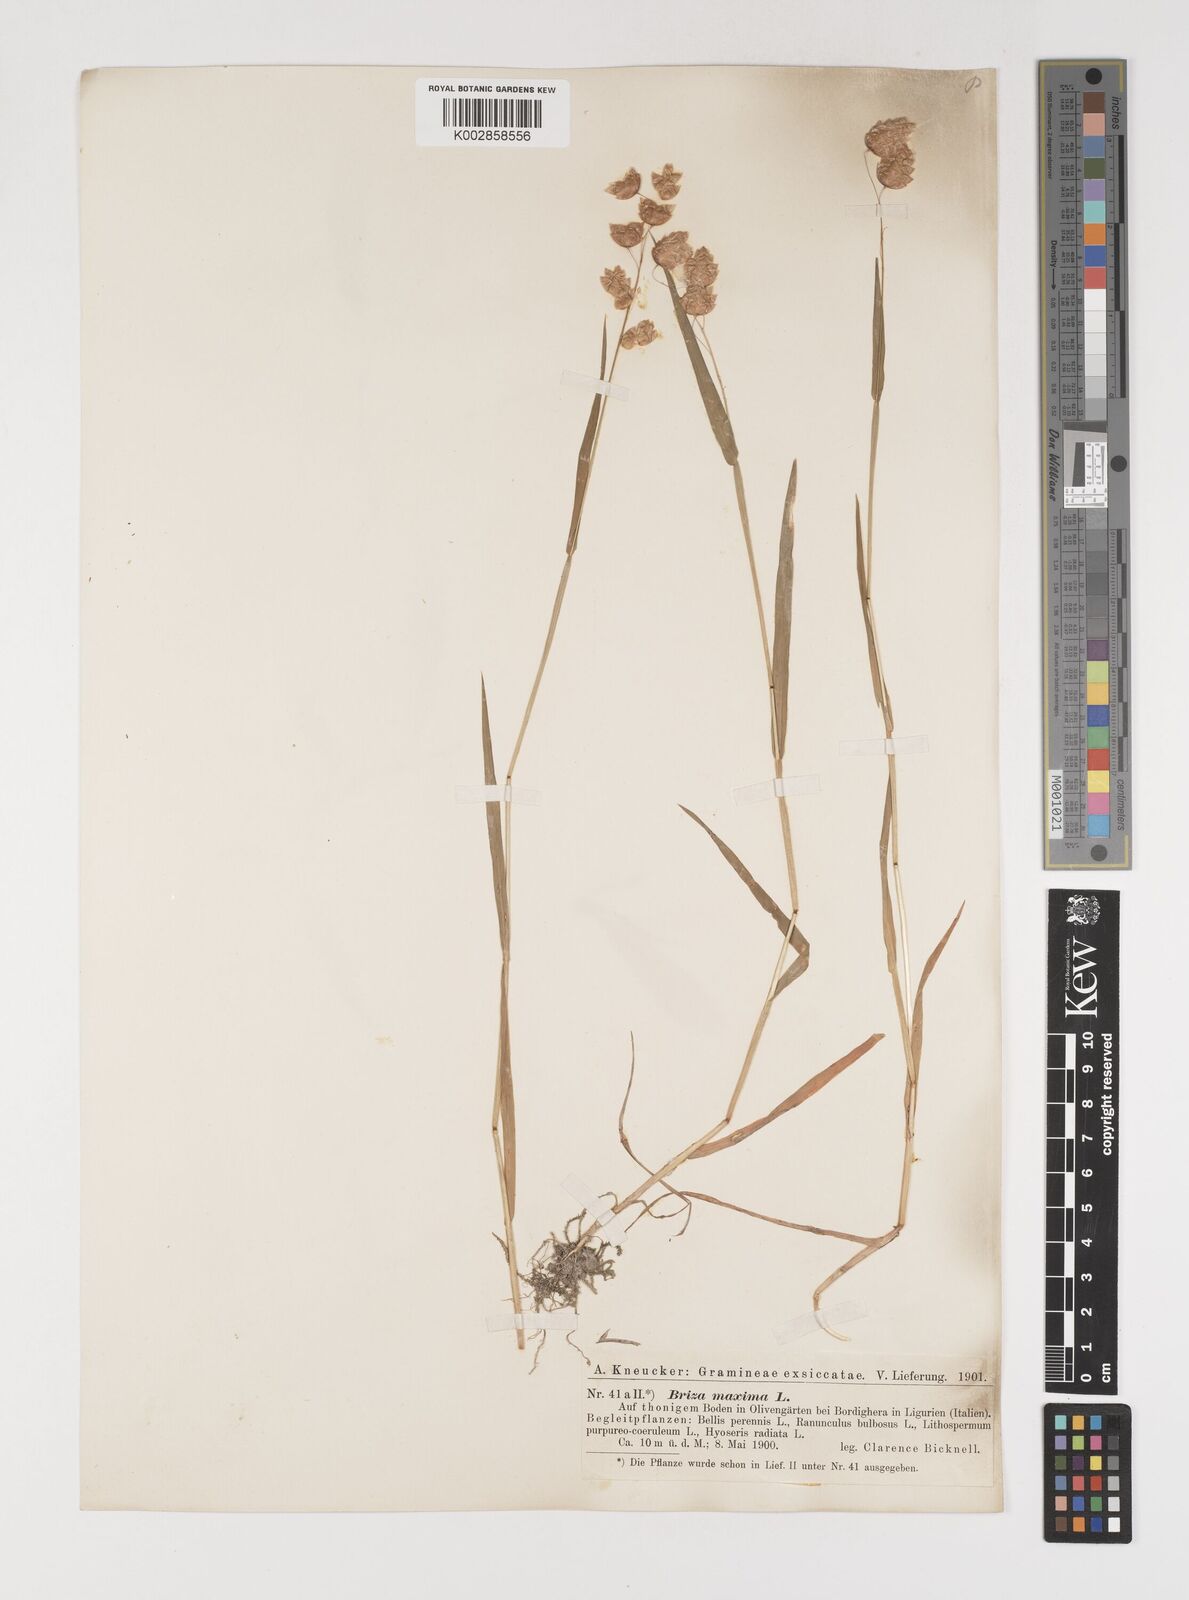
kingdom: Plantae
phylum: Tracheophyta
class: Liliopsida
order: Poales
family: Poaceae
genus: Briza
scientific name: Briza maxima
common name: Big quakinggrass
